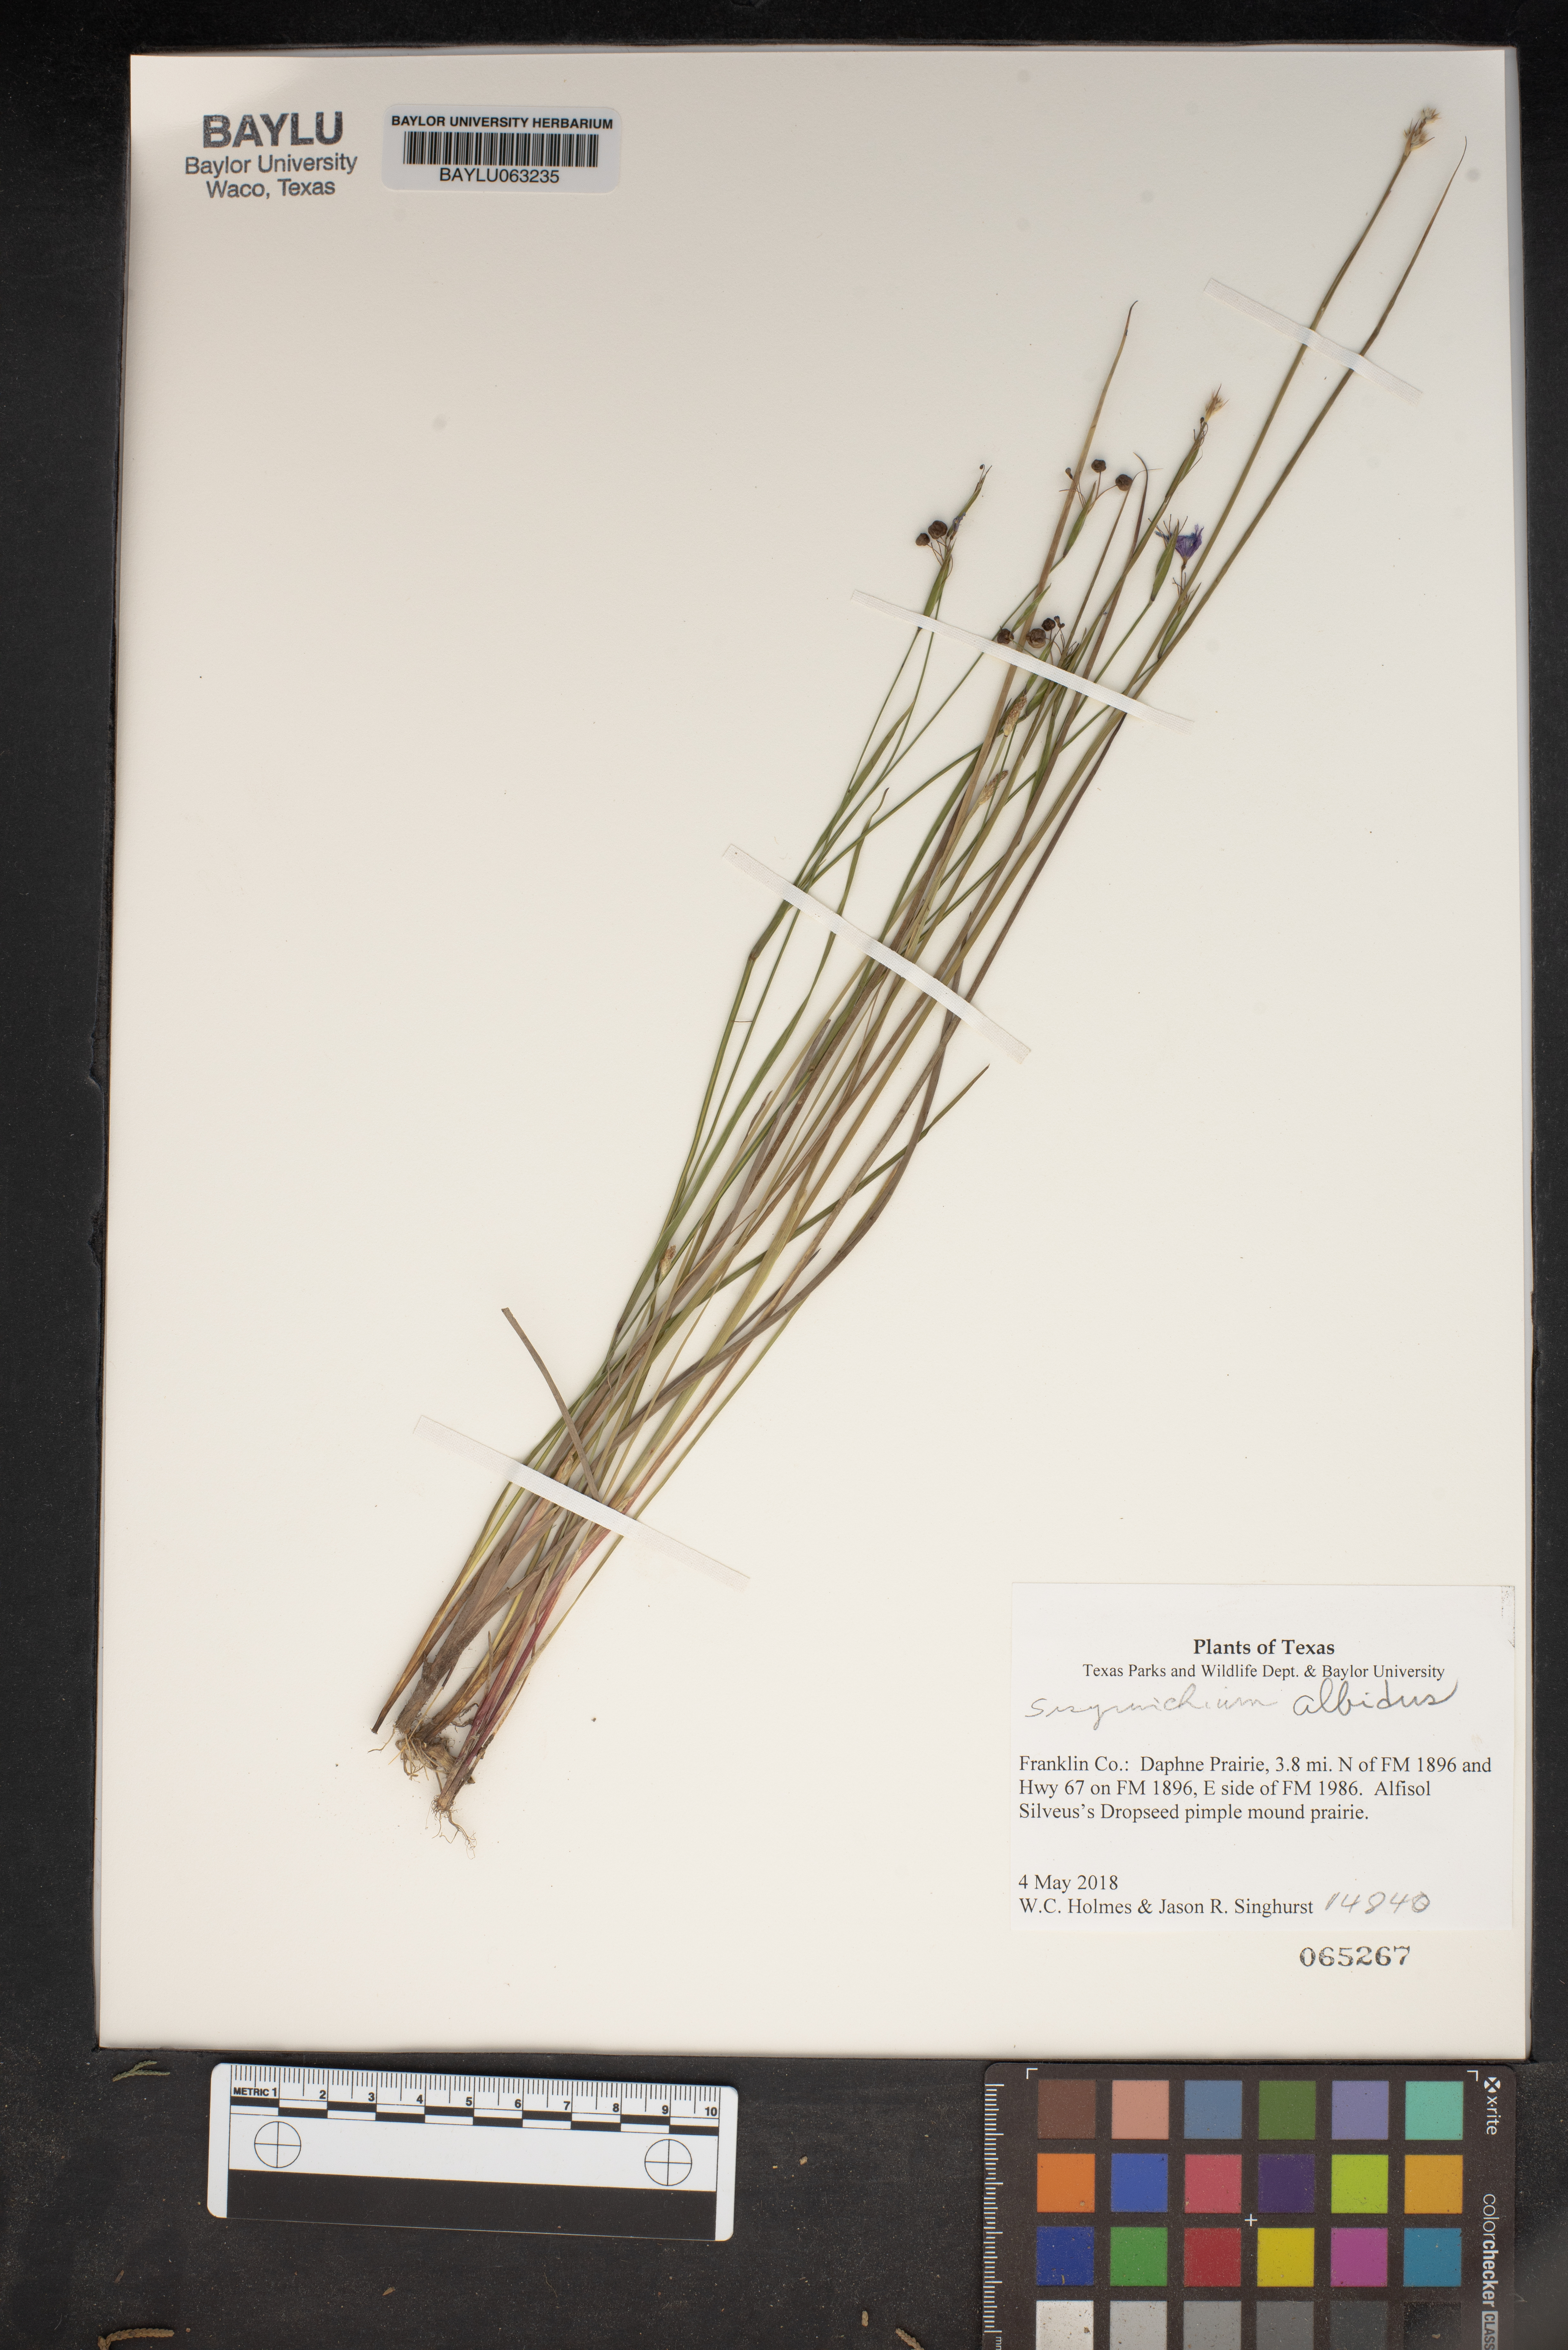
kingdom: Plantae
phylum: Tracheophyta
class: Liliopsida
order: Asparagales
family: Iridaceae
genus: Sisyrinchium
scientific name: Sisyrinchium albidum
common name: Pale blue-eyed-grass
